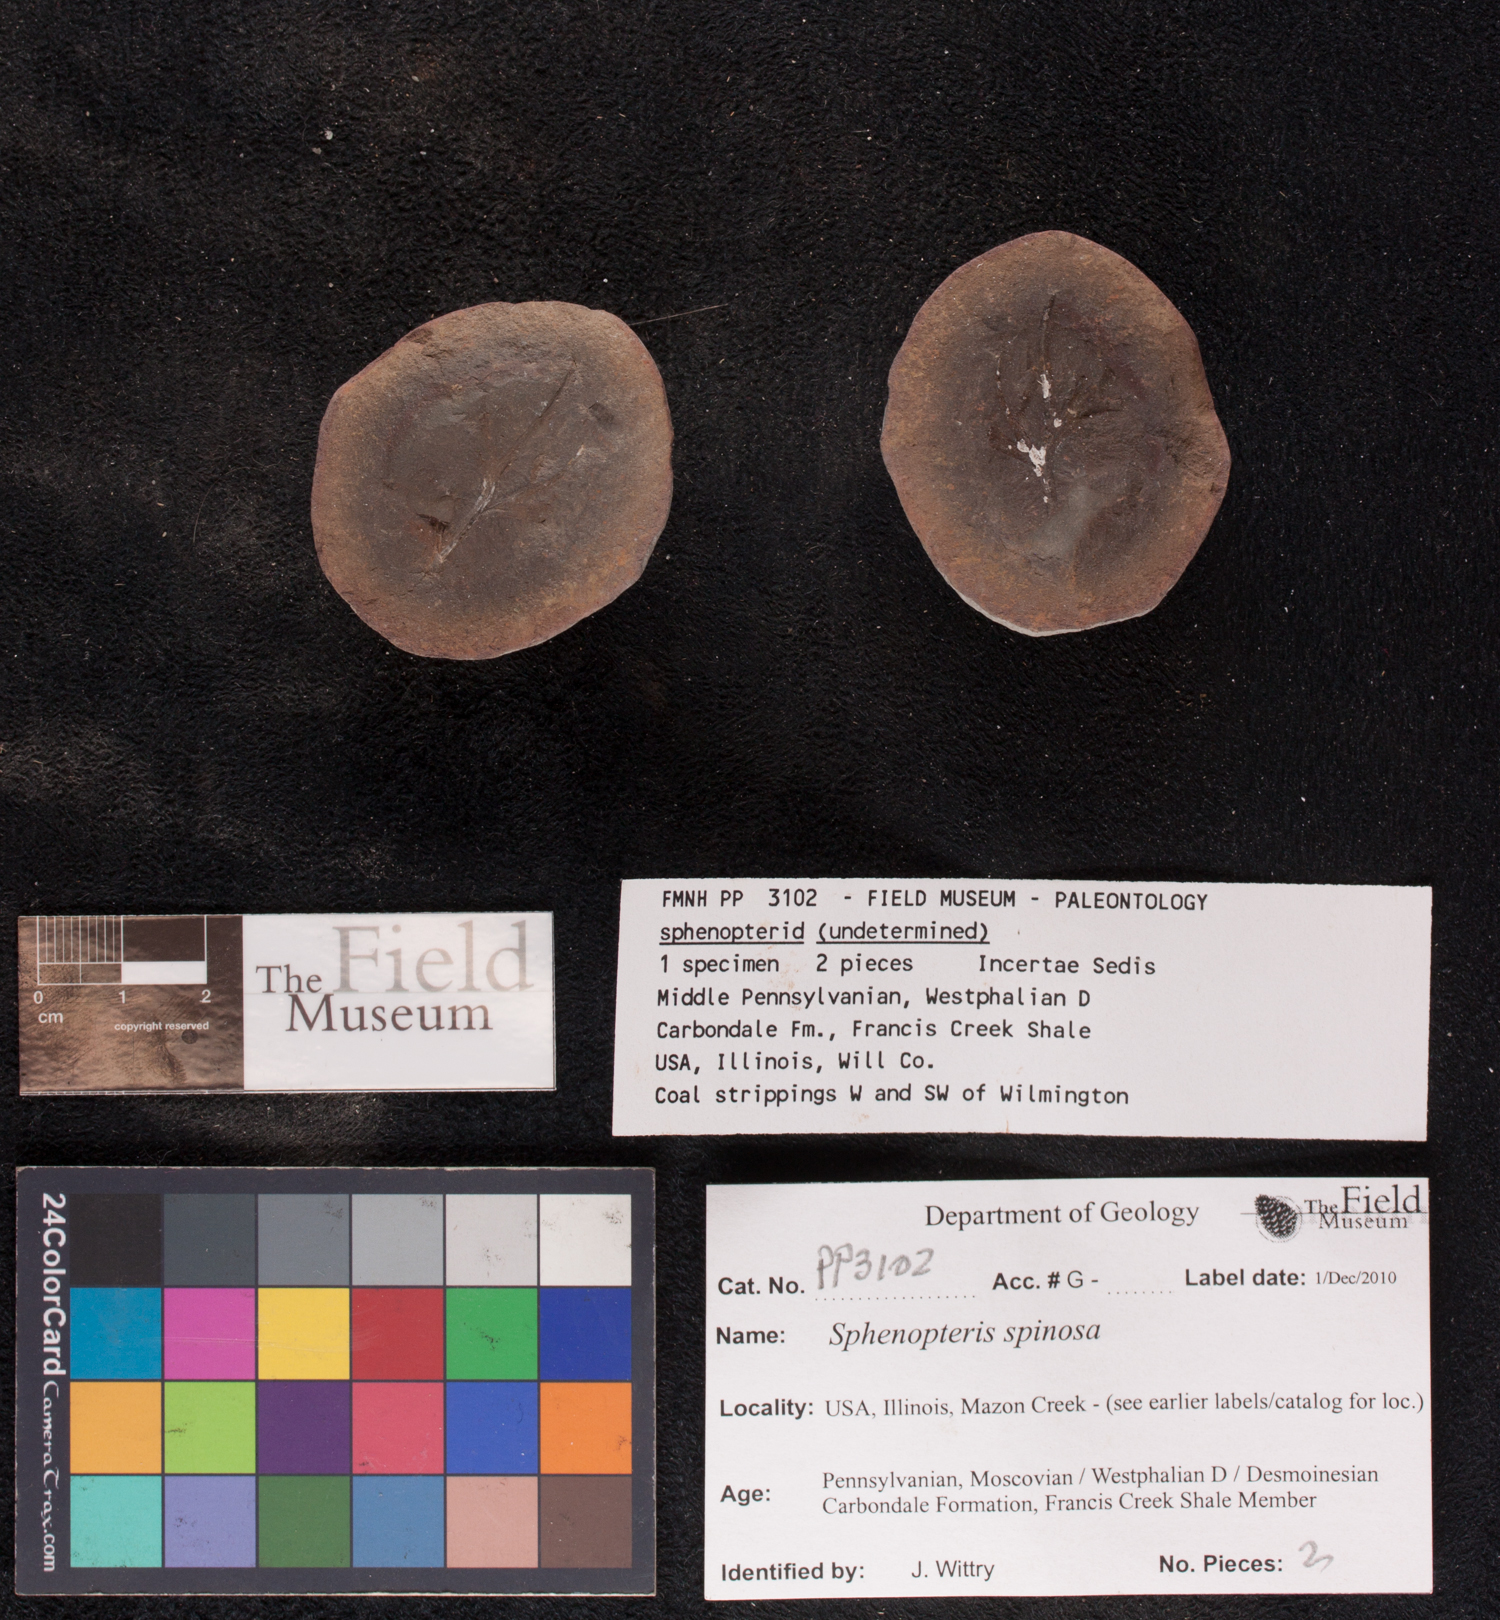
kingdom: Plantae
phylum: Tracheophyta
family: Lyginopteridaceae
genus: Sphenopteris
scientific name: Sphenopteris
